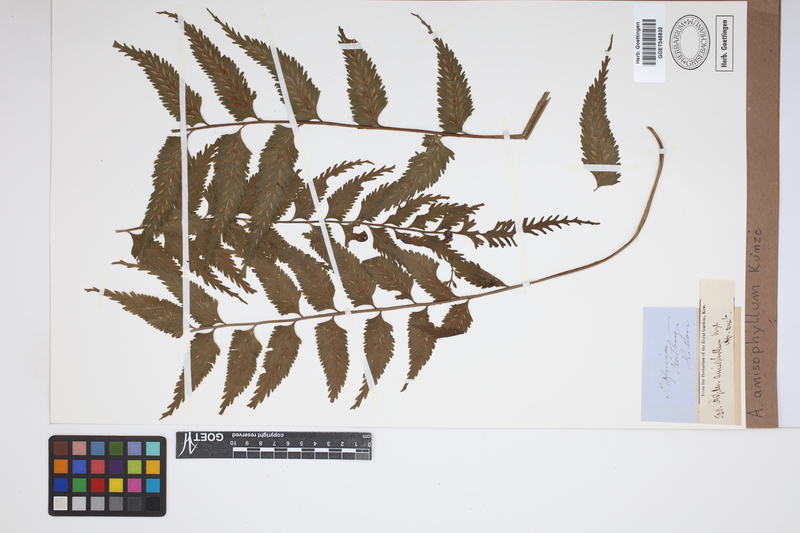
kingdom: Plantae
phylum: Tracheophyta
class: Polypodiopsida
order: Polypodiales
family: Aspleniaceae
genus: Asplenium
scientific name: Asplenium anisophyllum
